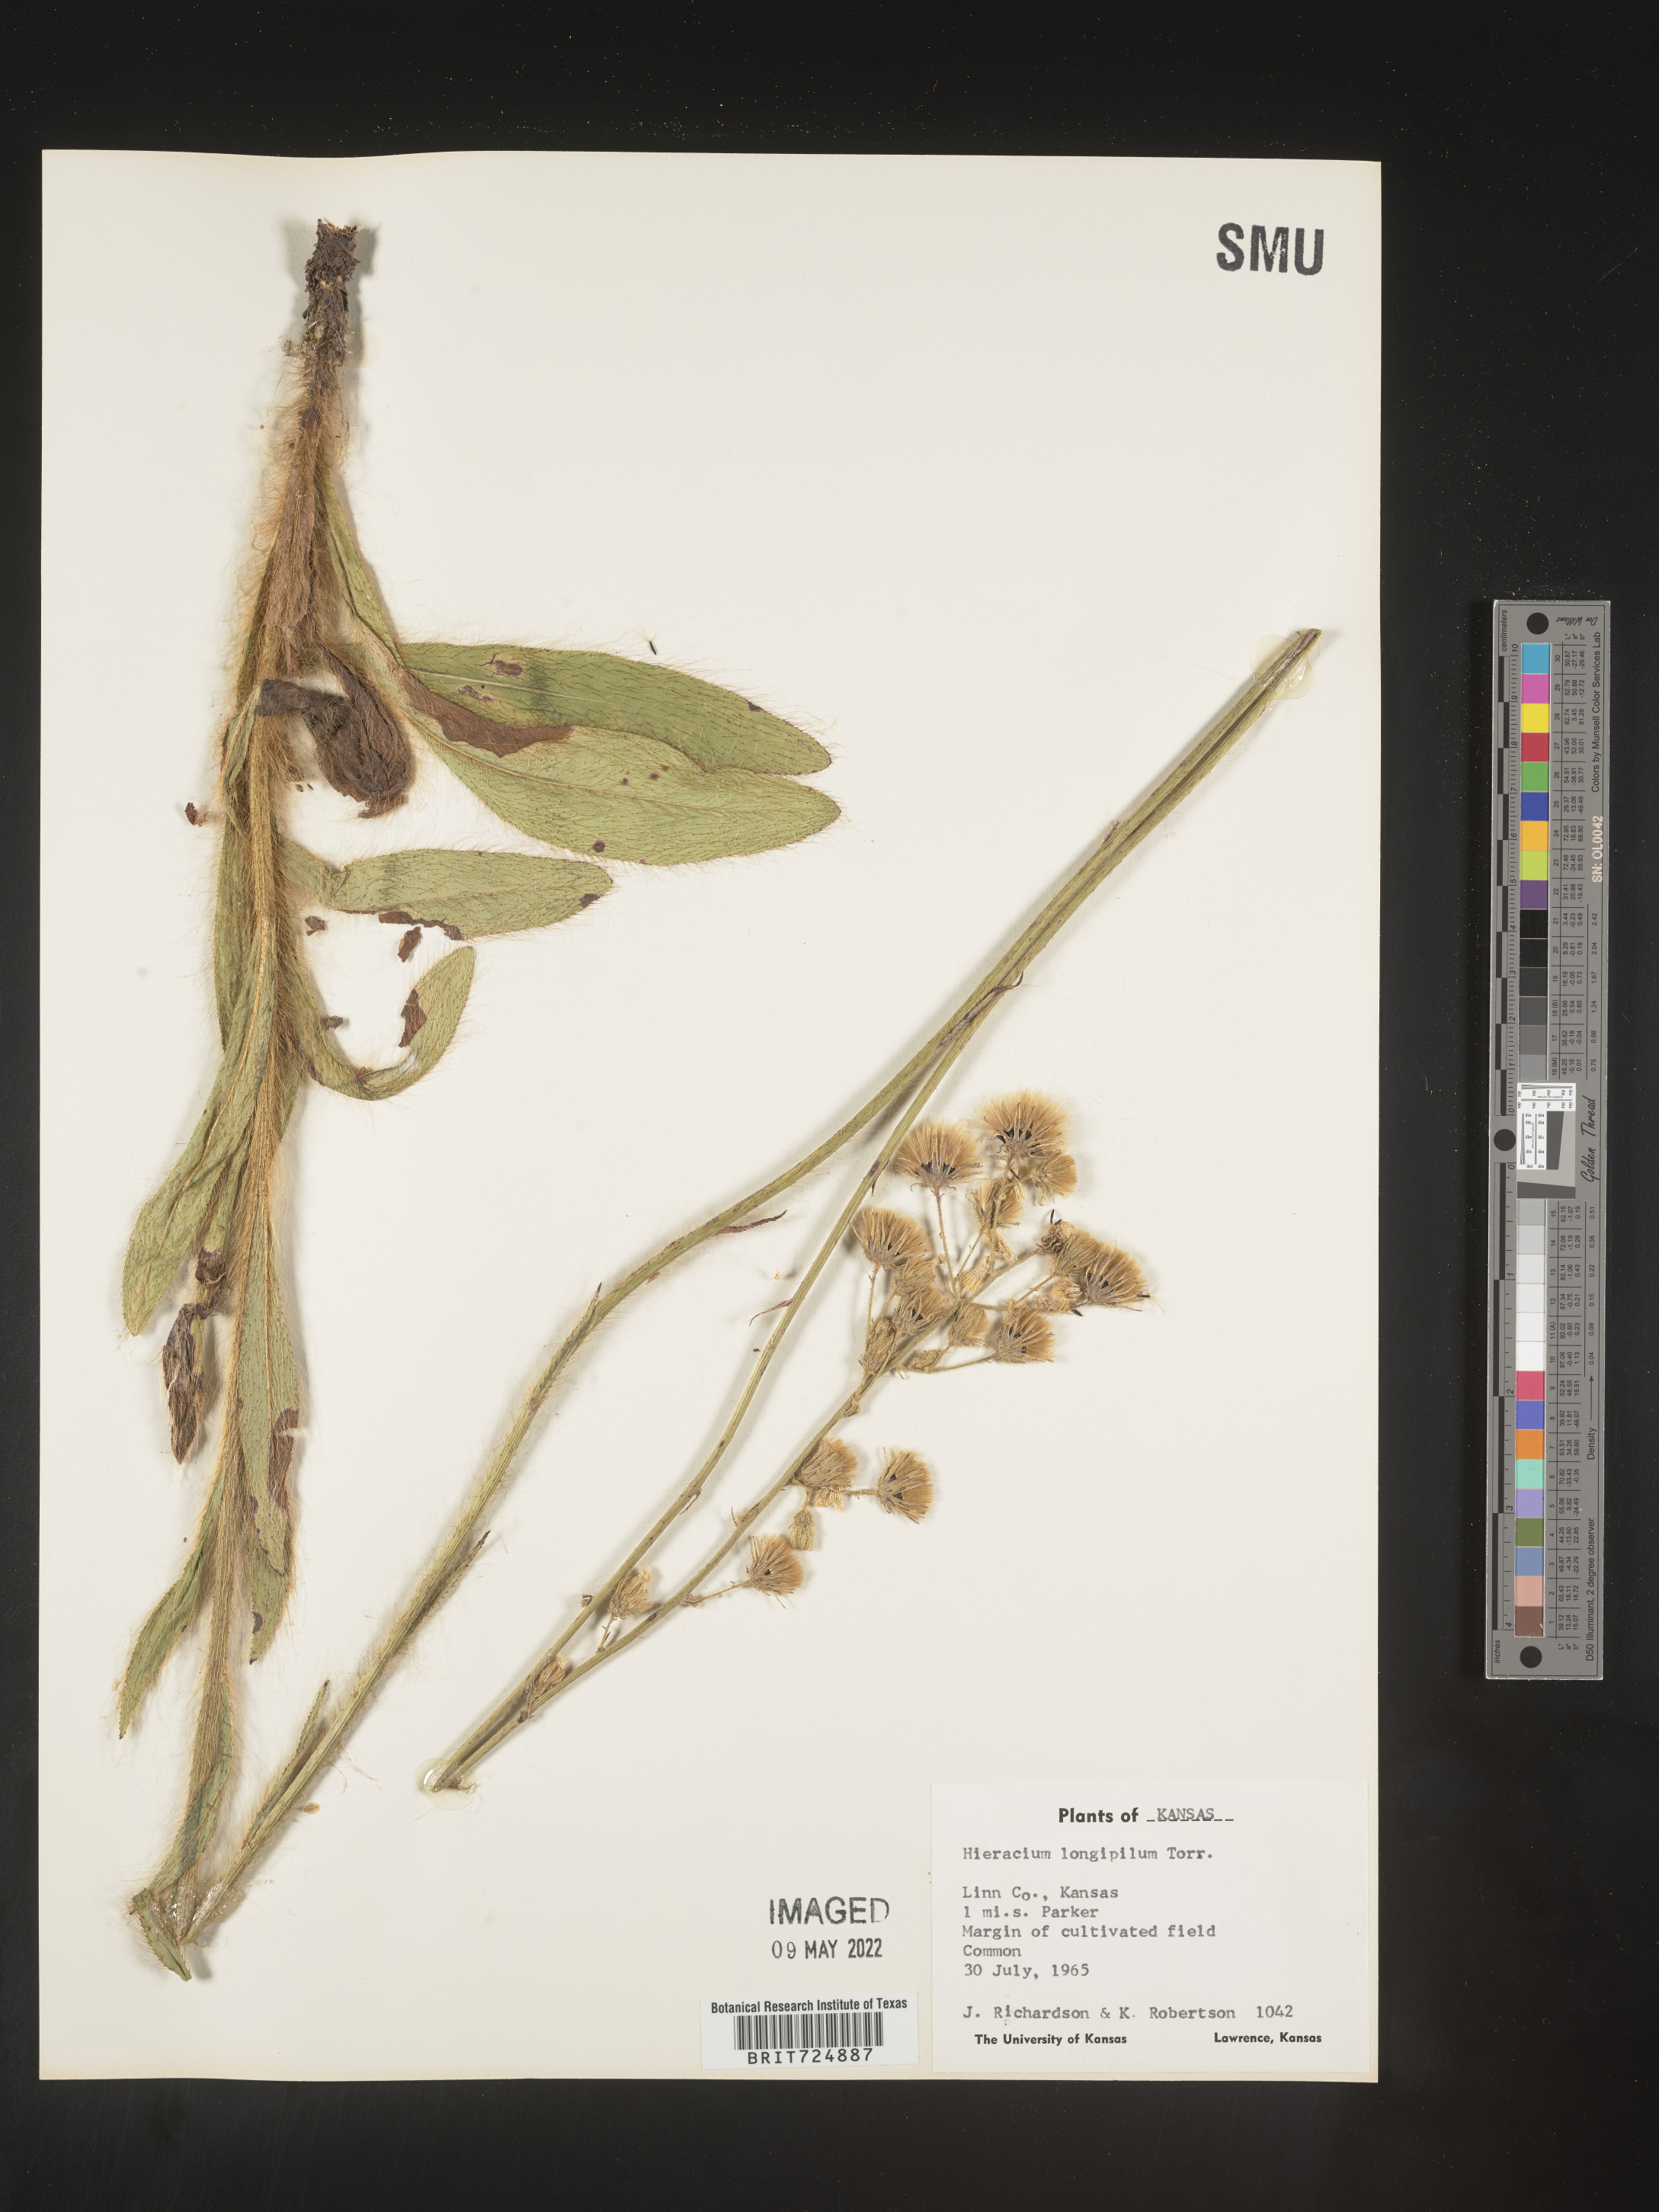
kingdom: Plantae
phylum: Tracheophyta
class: Magnoliopsida
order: Asterales
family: Asteraceae
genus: Hieracium
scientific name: Hieracium longipilum
